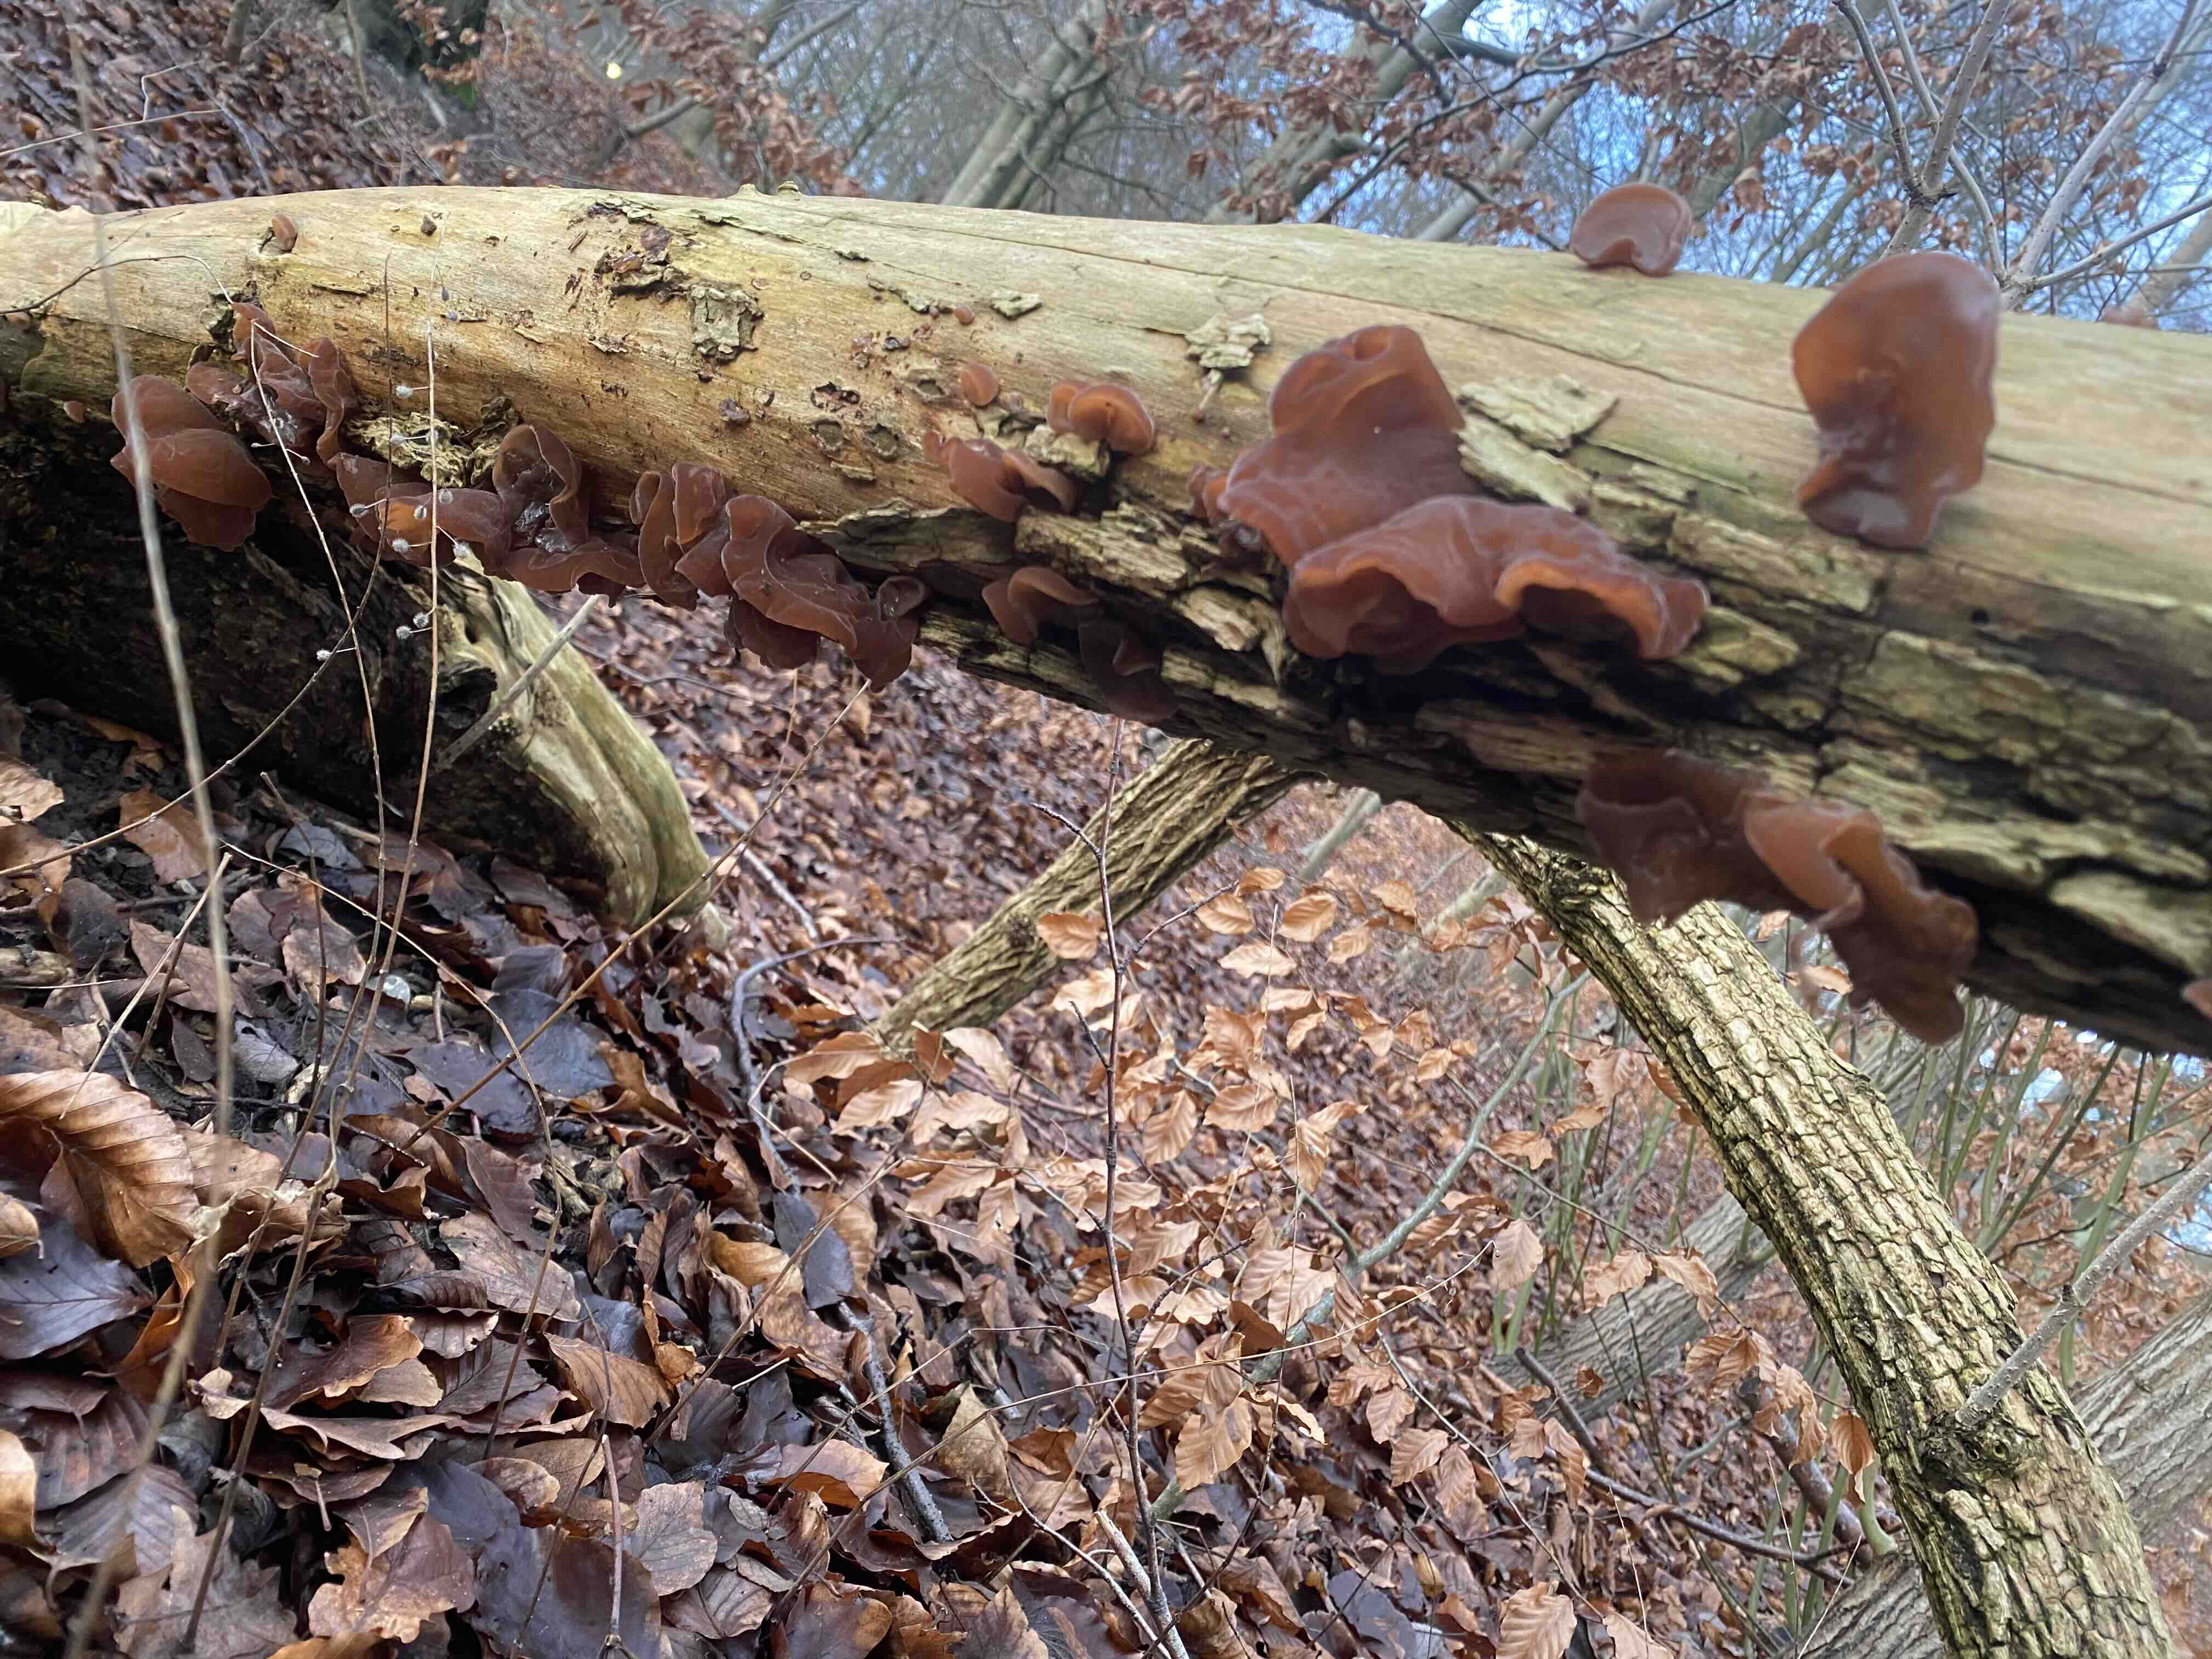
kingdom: Fungi
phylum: Basidiomycota
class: Agaricomycetes
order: Auriculariales
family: Auriculariaceae
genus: Auricularia
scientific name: Auricularia auricula-judae
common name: almindelig judasøre
